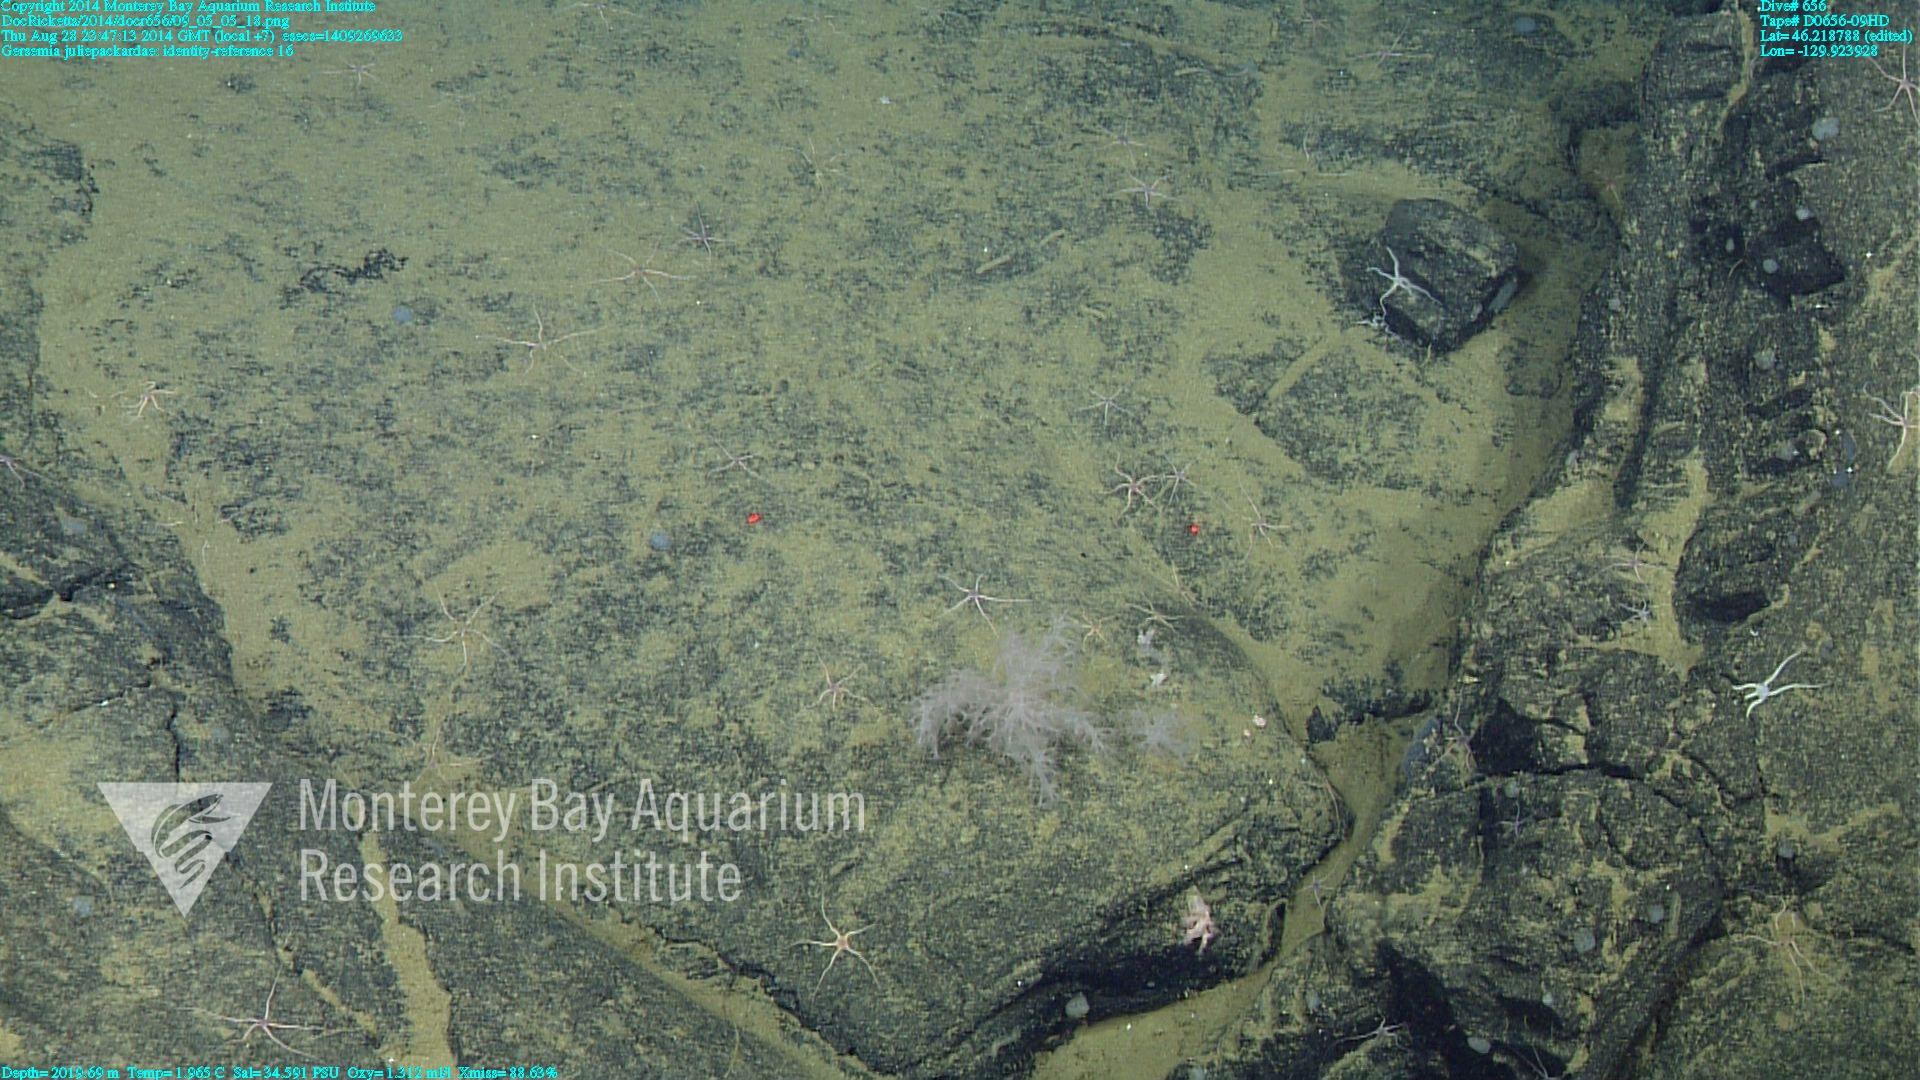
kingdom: Animalia
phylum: Cnidaria
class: Anthozoa
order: Malacalcyonacea
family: Alcyoniidae
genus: Gersemia
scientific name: Gersemia juliepackardae
